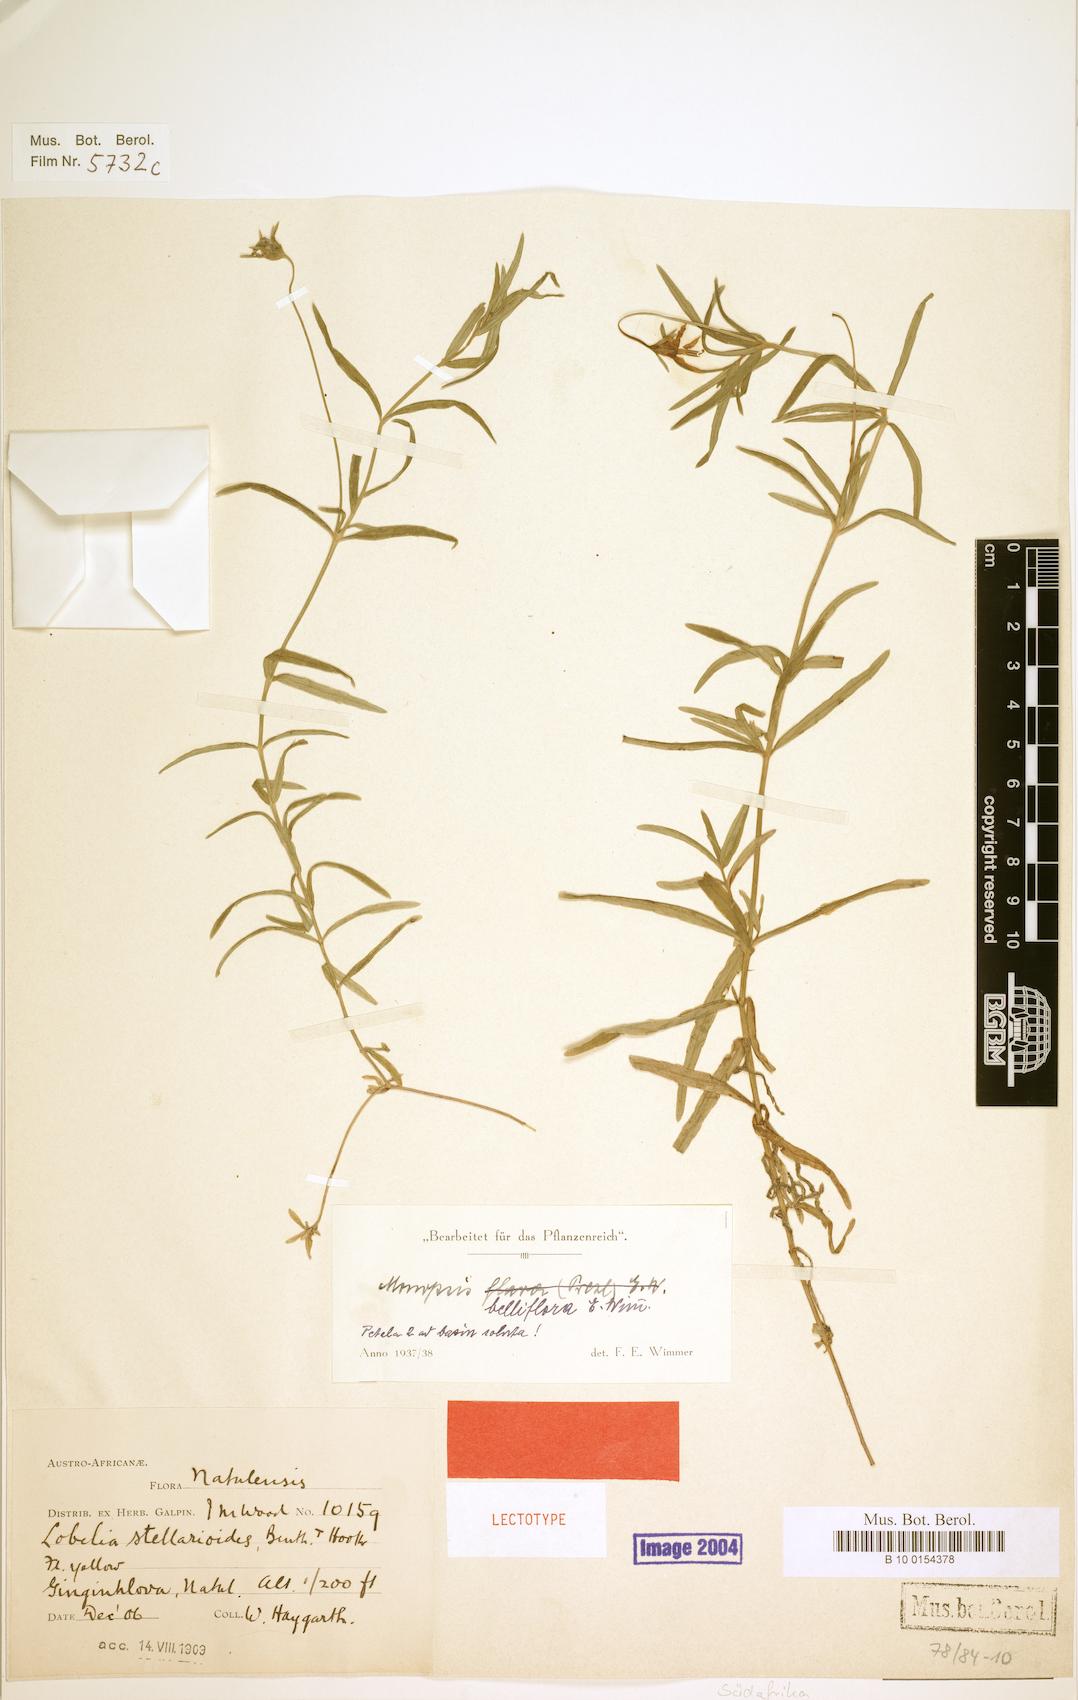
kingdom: Plantae
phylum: Tracheophyta
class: Magnoliopsida
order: Asterales
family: Campanulaceae
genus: Monopsis
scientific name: Monopsis belliflora
